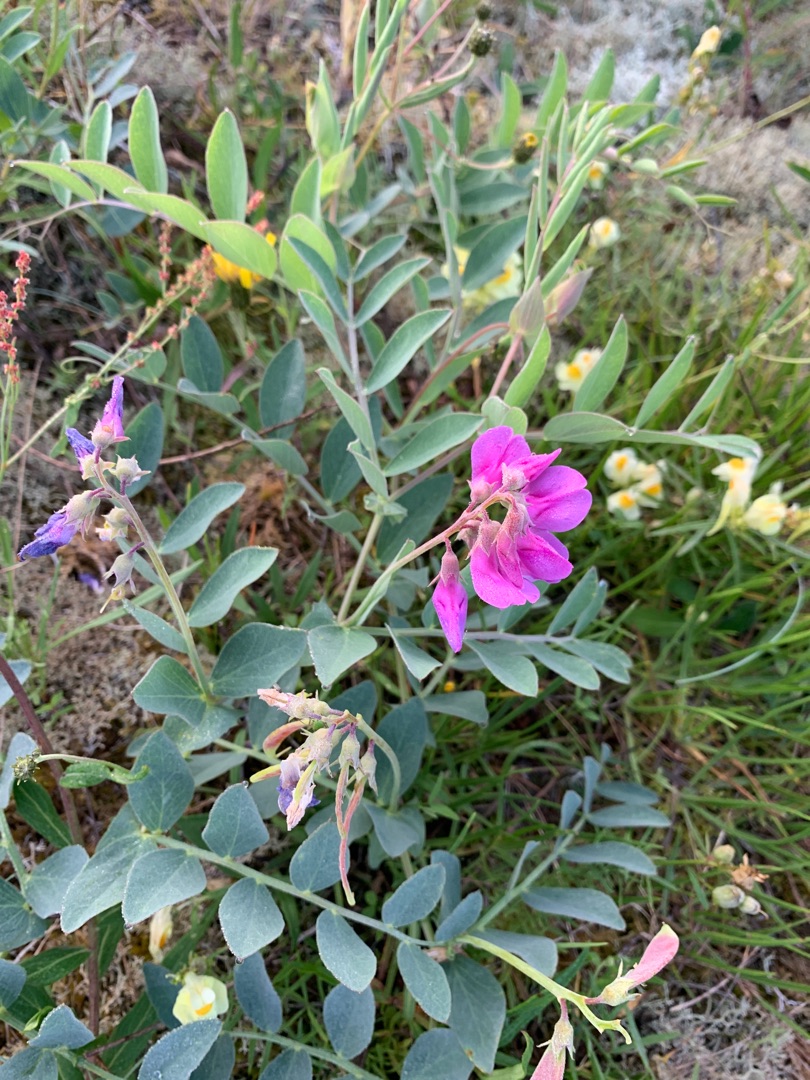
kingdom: Plantae
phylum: Tracheophyta
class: Magnoliopsida
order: Fabales
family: Fabaceae
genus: Lathyrus
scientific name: Lathyrus japonicus
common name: Strand-fladbælg
